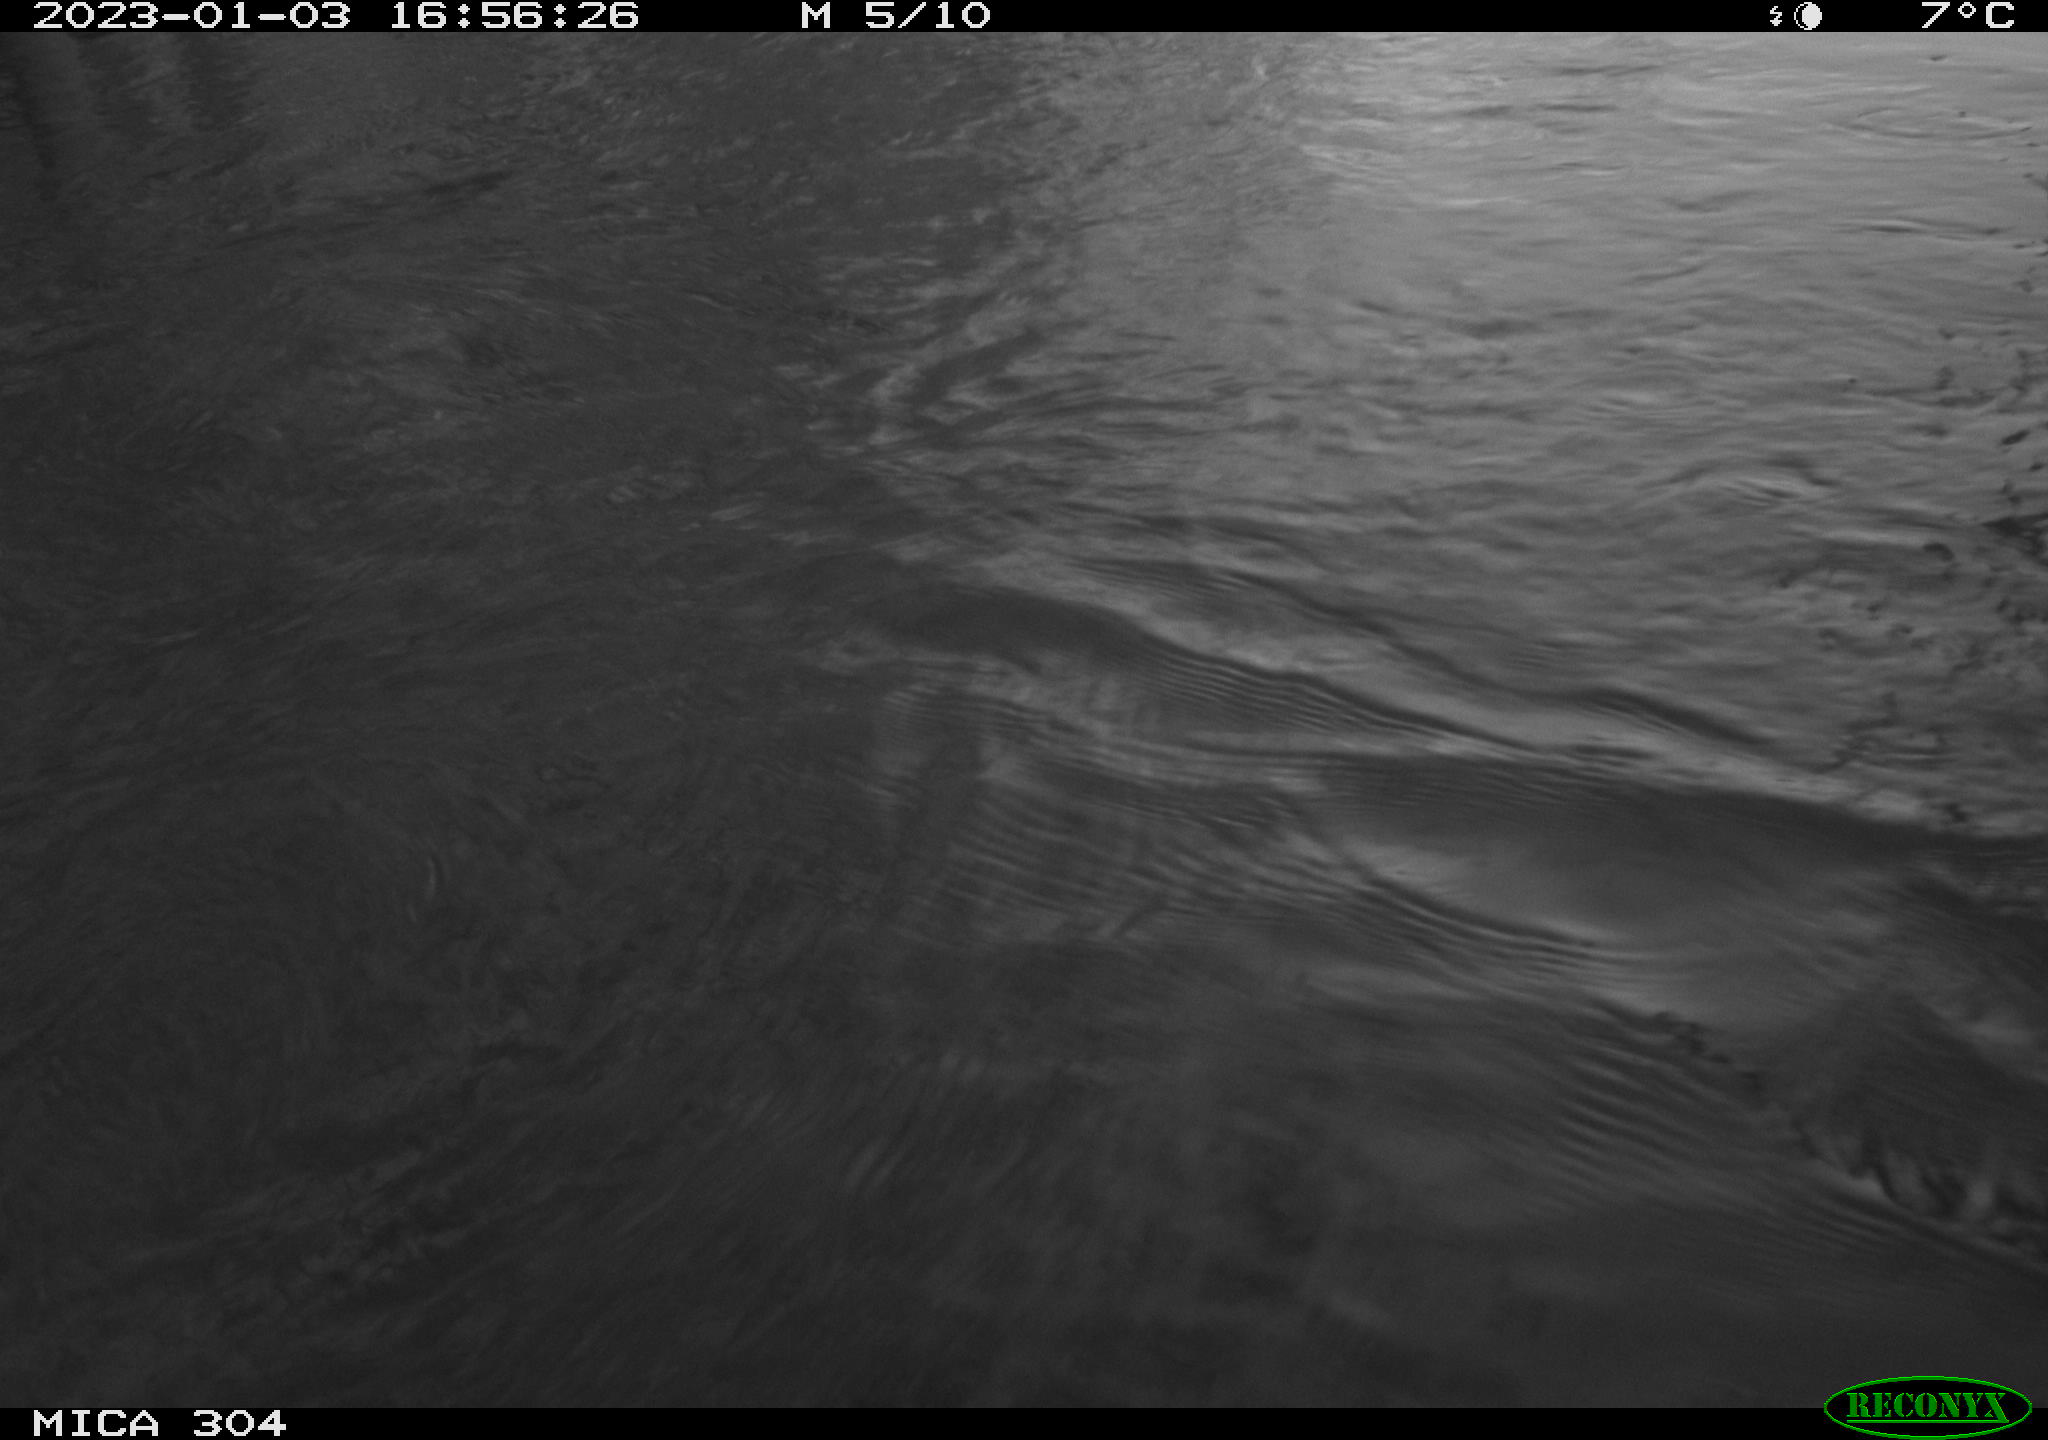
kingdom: Animalia
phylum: Chordata
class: Aves
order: Gruiformes
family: Rallidae
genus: Fulica
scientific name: Fulica atra
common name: Eurasian coot
